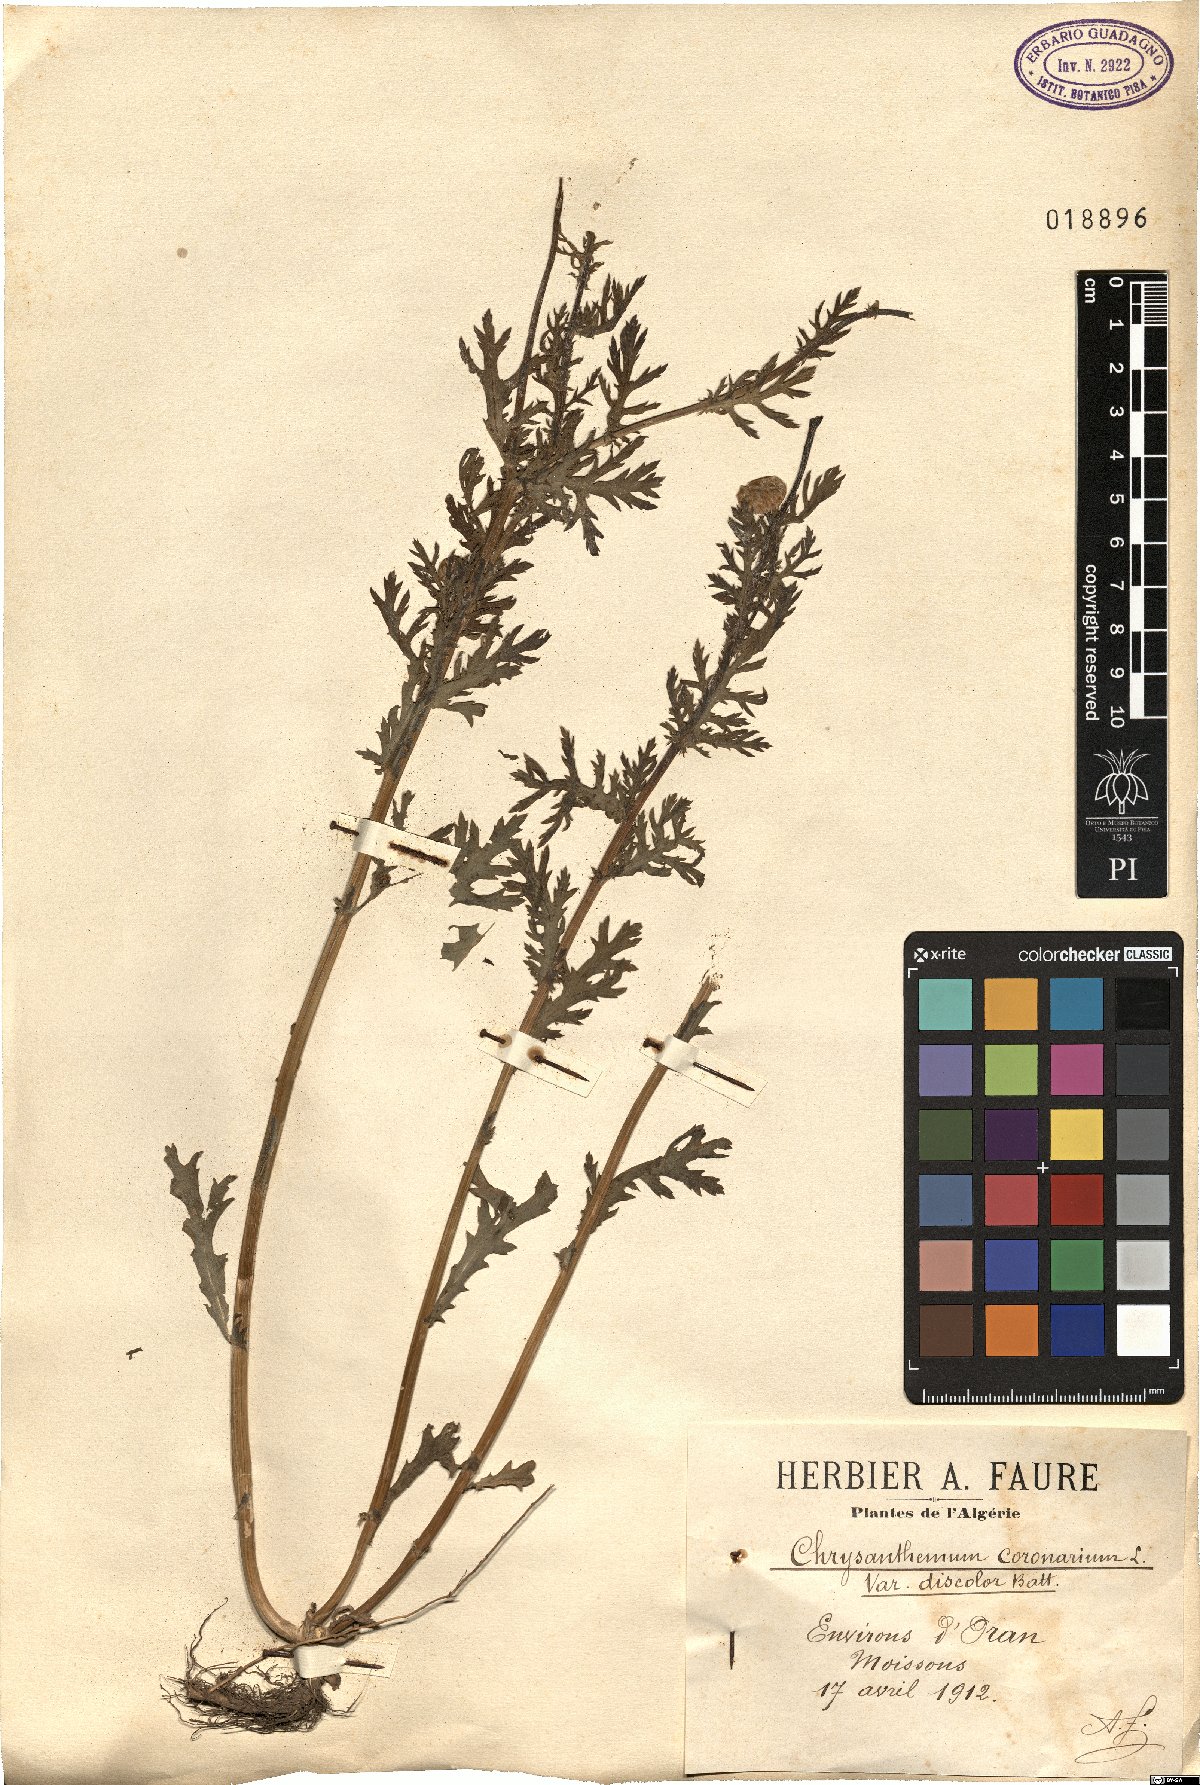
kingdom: Plantae
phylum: Tracheophyta
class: Magnoliopsida
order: Asterales
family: Asteraceae
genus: Glebionis
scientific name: Glebionis coronaria
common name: Crowndaisy
